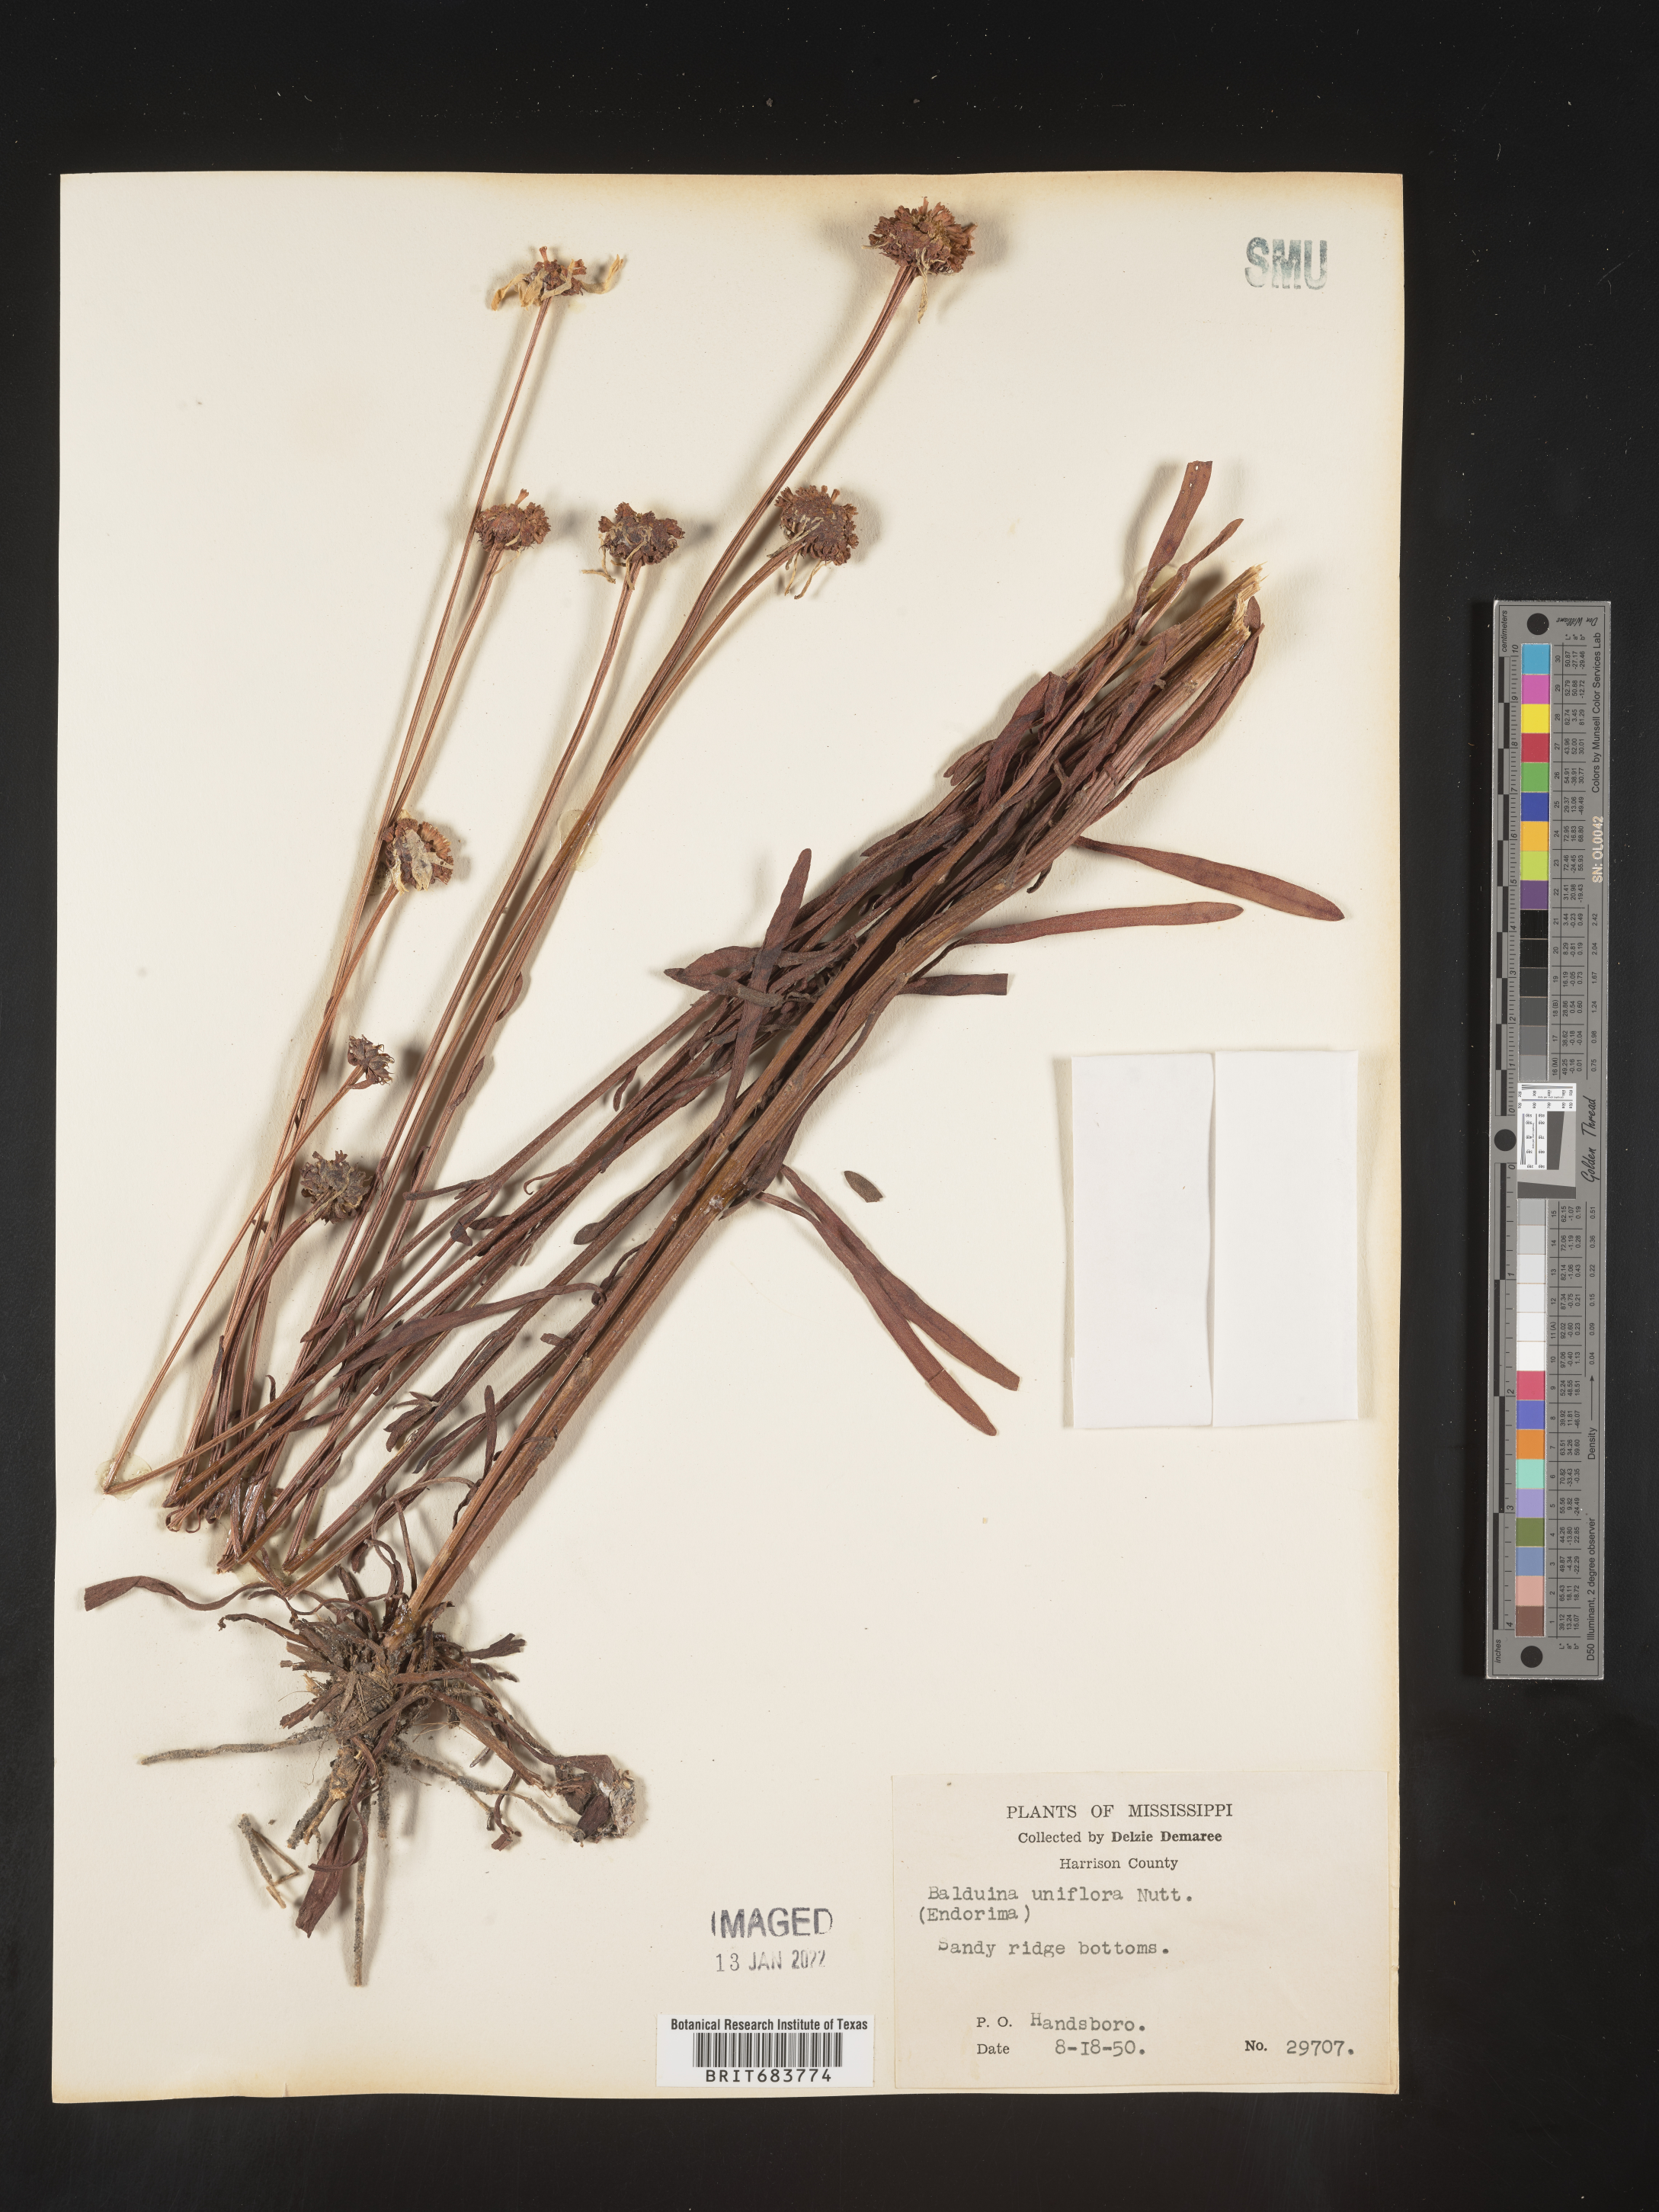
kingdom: Plantae
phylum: Tracheophyta
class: Magnoliopsida
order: Asterales
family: Asteraceae
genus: Balduina
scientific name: Balduina uniflora
